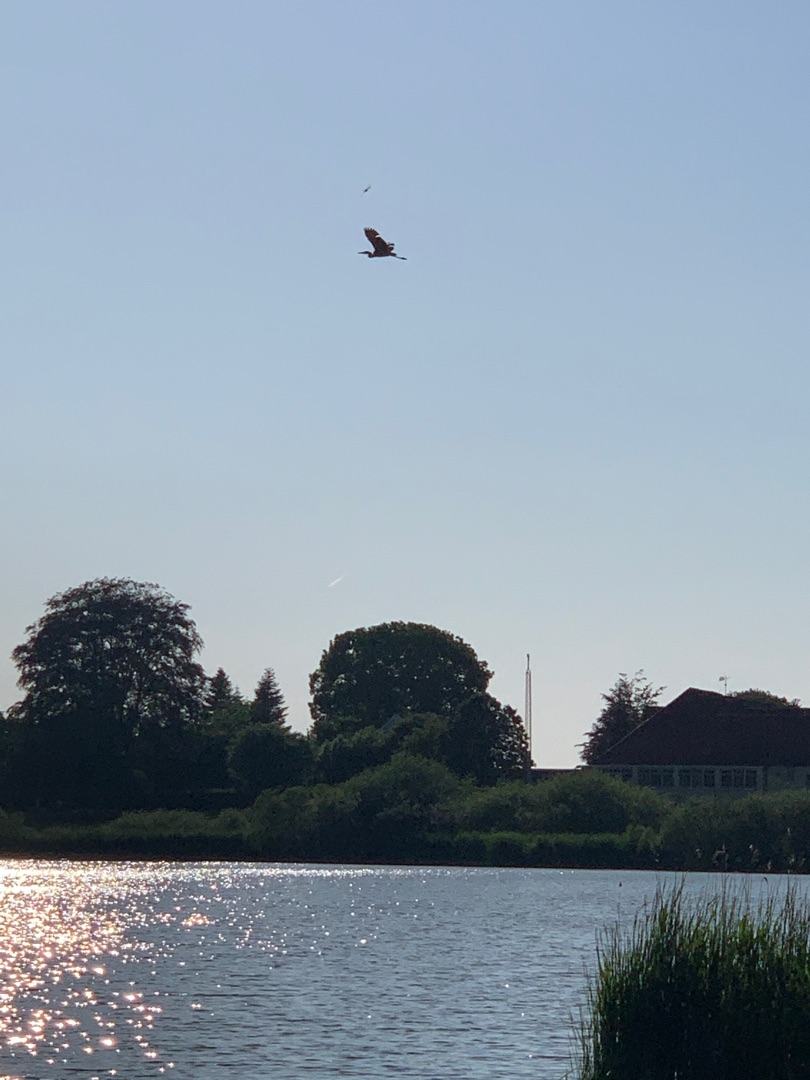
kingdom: Animalia
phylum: Chordata
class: Aves
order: Pelecaniformes
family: Ardeidae
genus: Ardea
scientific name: Ardea cinerea
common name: Fiskehejre
